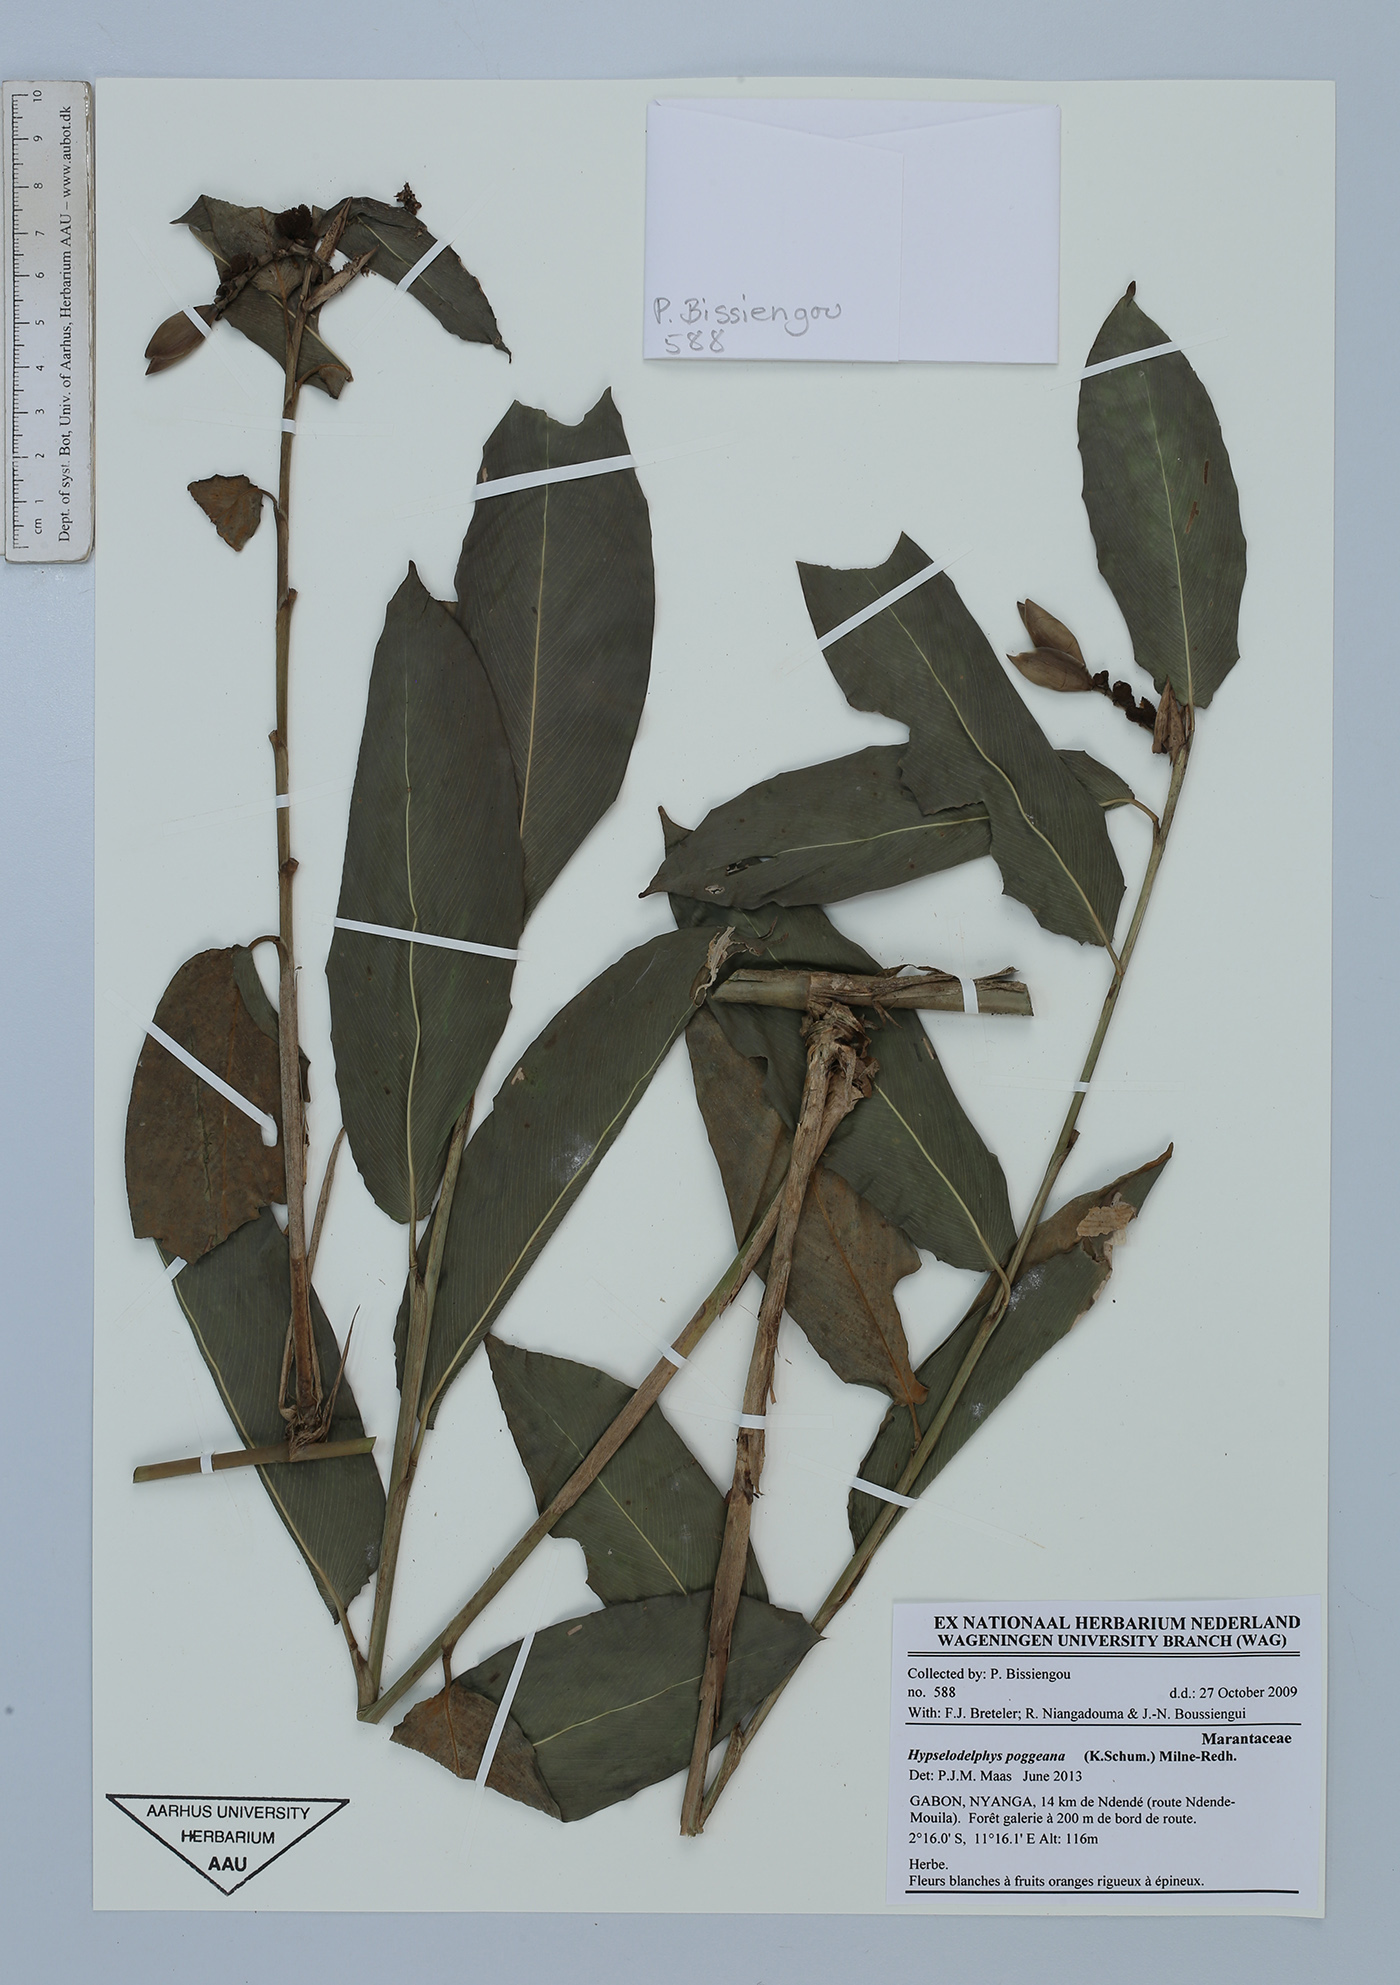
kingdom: Plantae
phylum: Tracheophyta
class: Liliopsida
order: Zingiberales
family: Marantaceae
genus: Hypselodelphys
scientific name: Hypselodelphys poggeana
